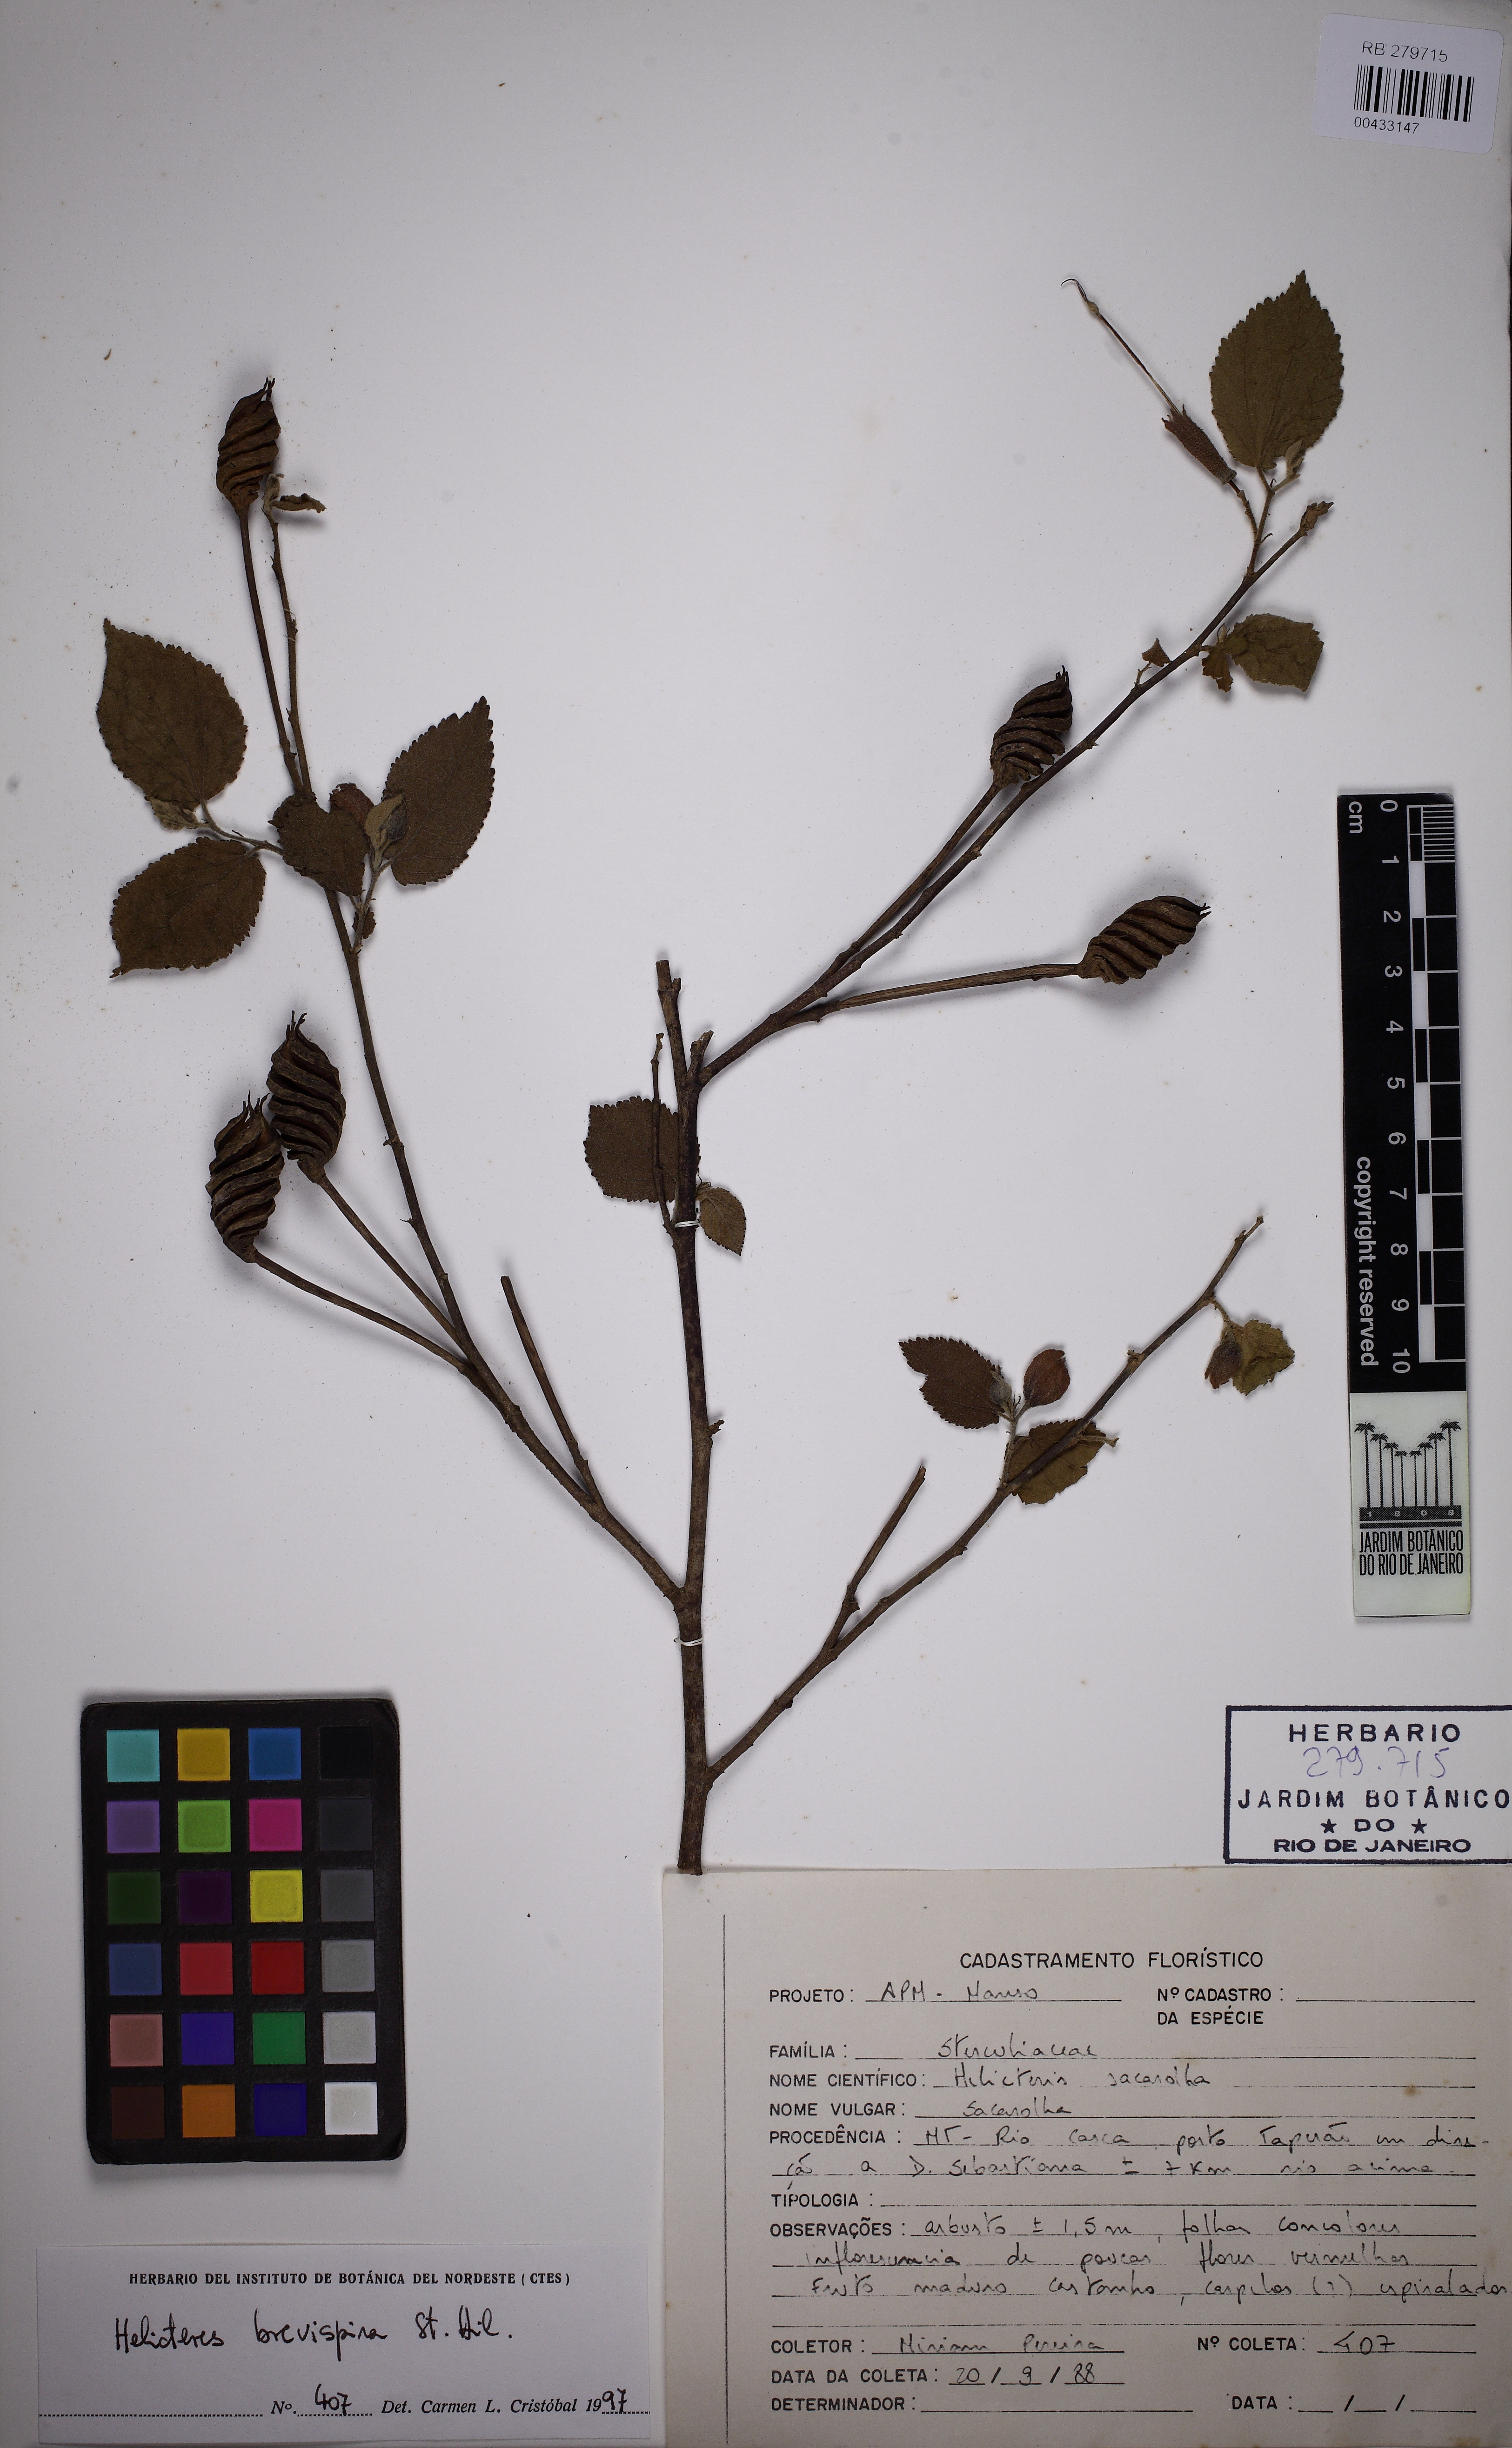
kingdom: Plantae
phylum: Tracheophyta
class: Magnoliopsida
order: Malvales
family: Malvaceae
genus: Helicteres
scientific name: Helicteres brevispira
